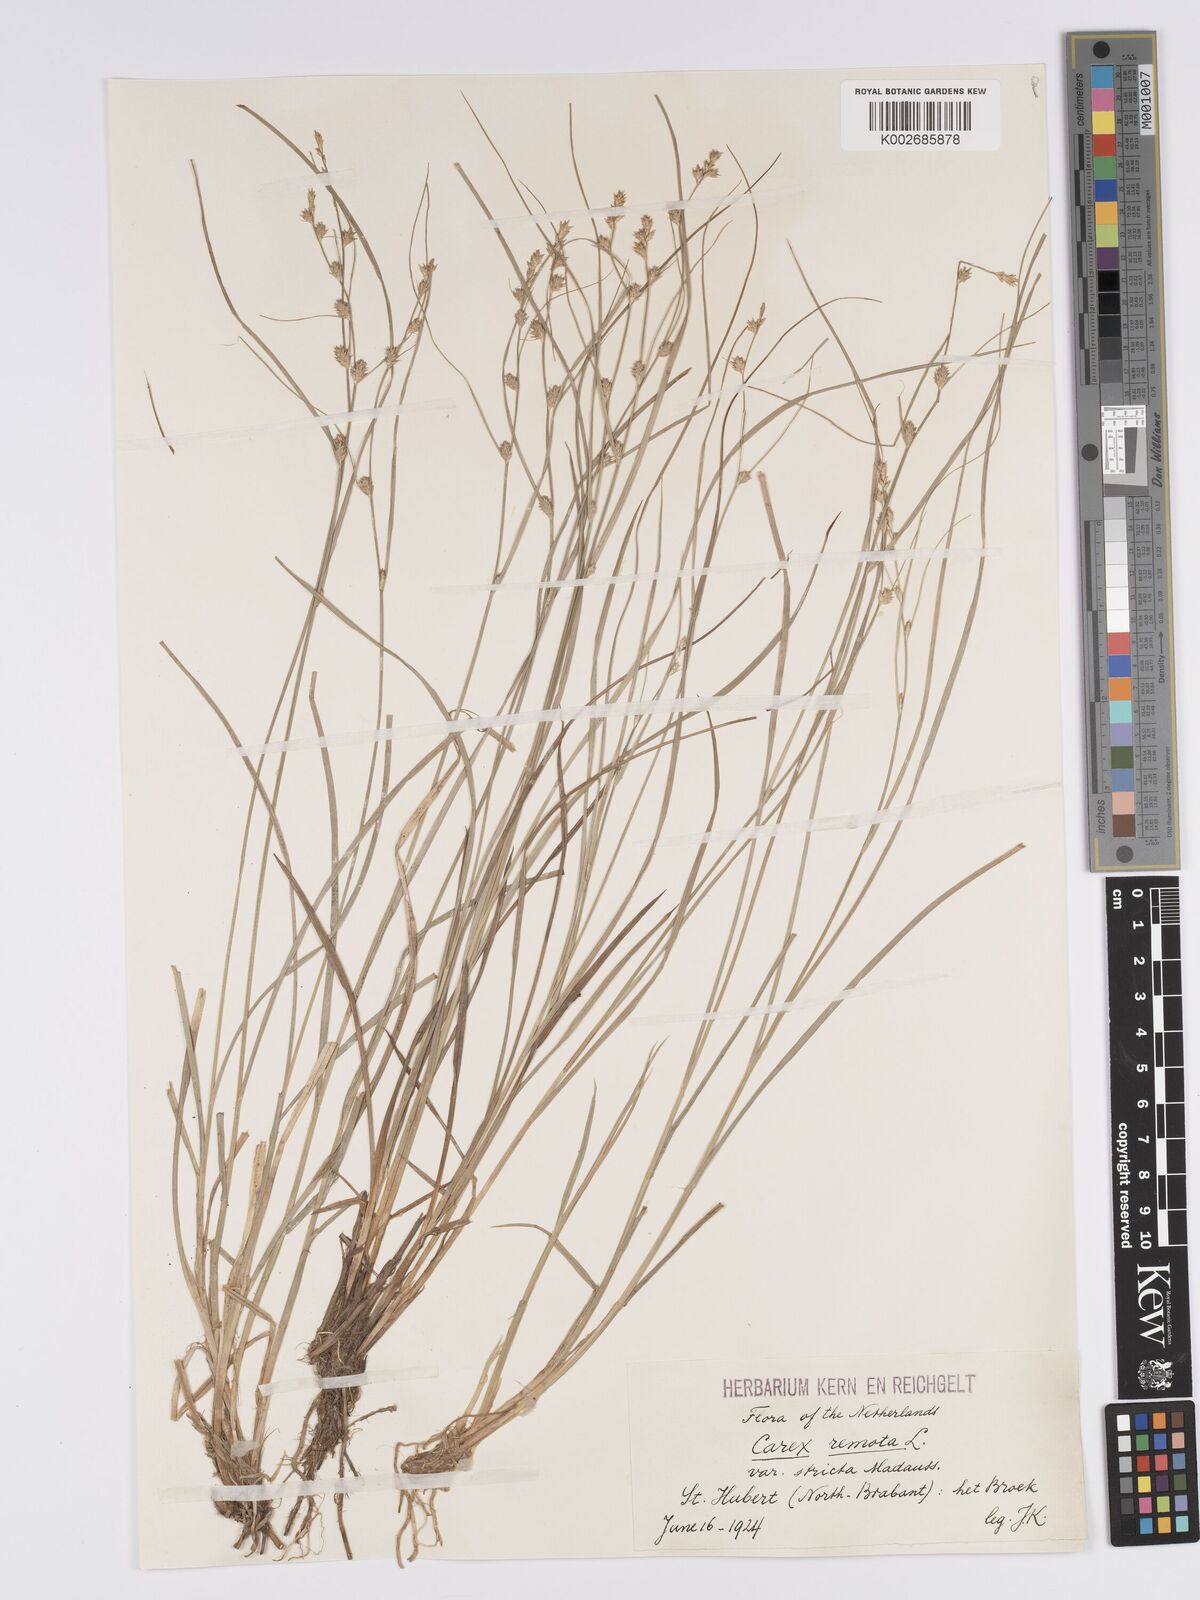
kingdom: Plantae
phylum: Tracheophyta
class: Liliopsida
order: Poales
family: Cyperaceae
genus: Carex
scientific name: Carex remota
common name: Remote sedge
